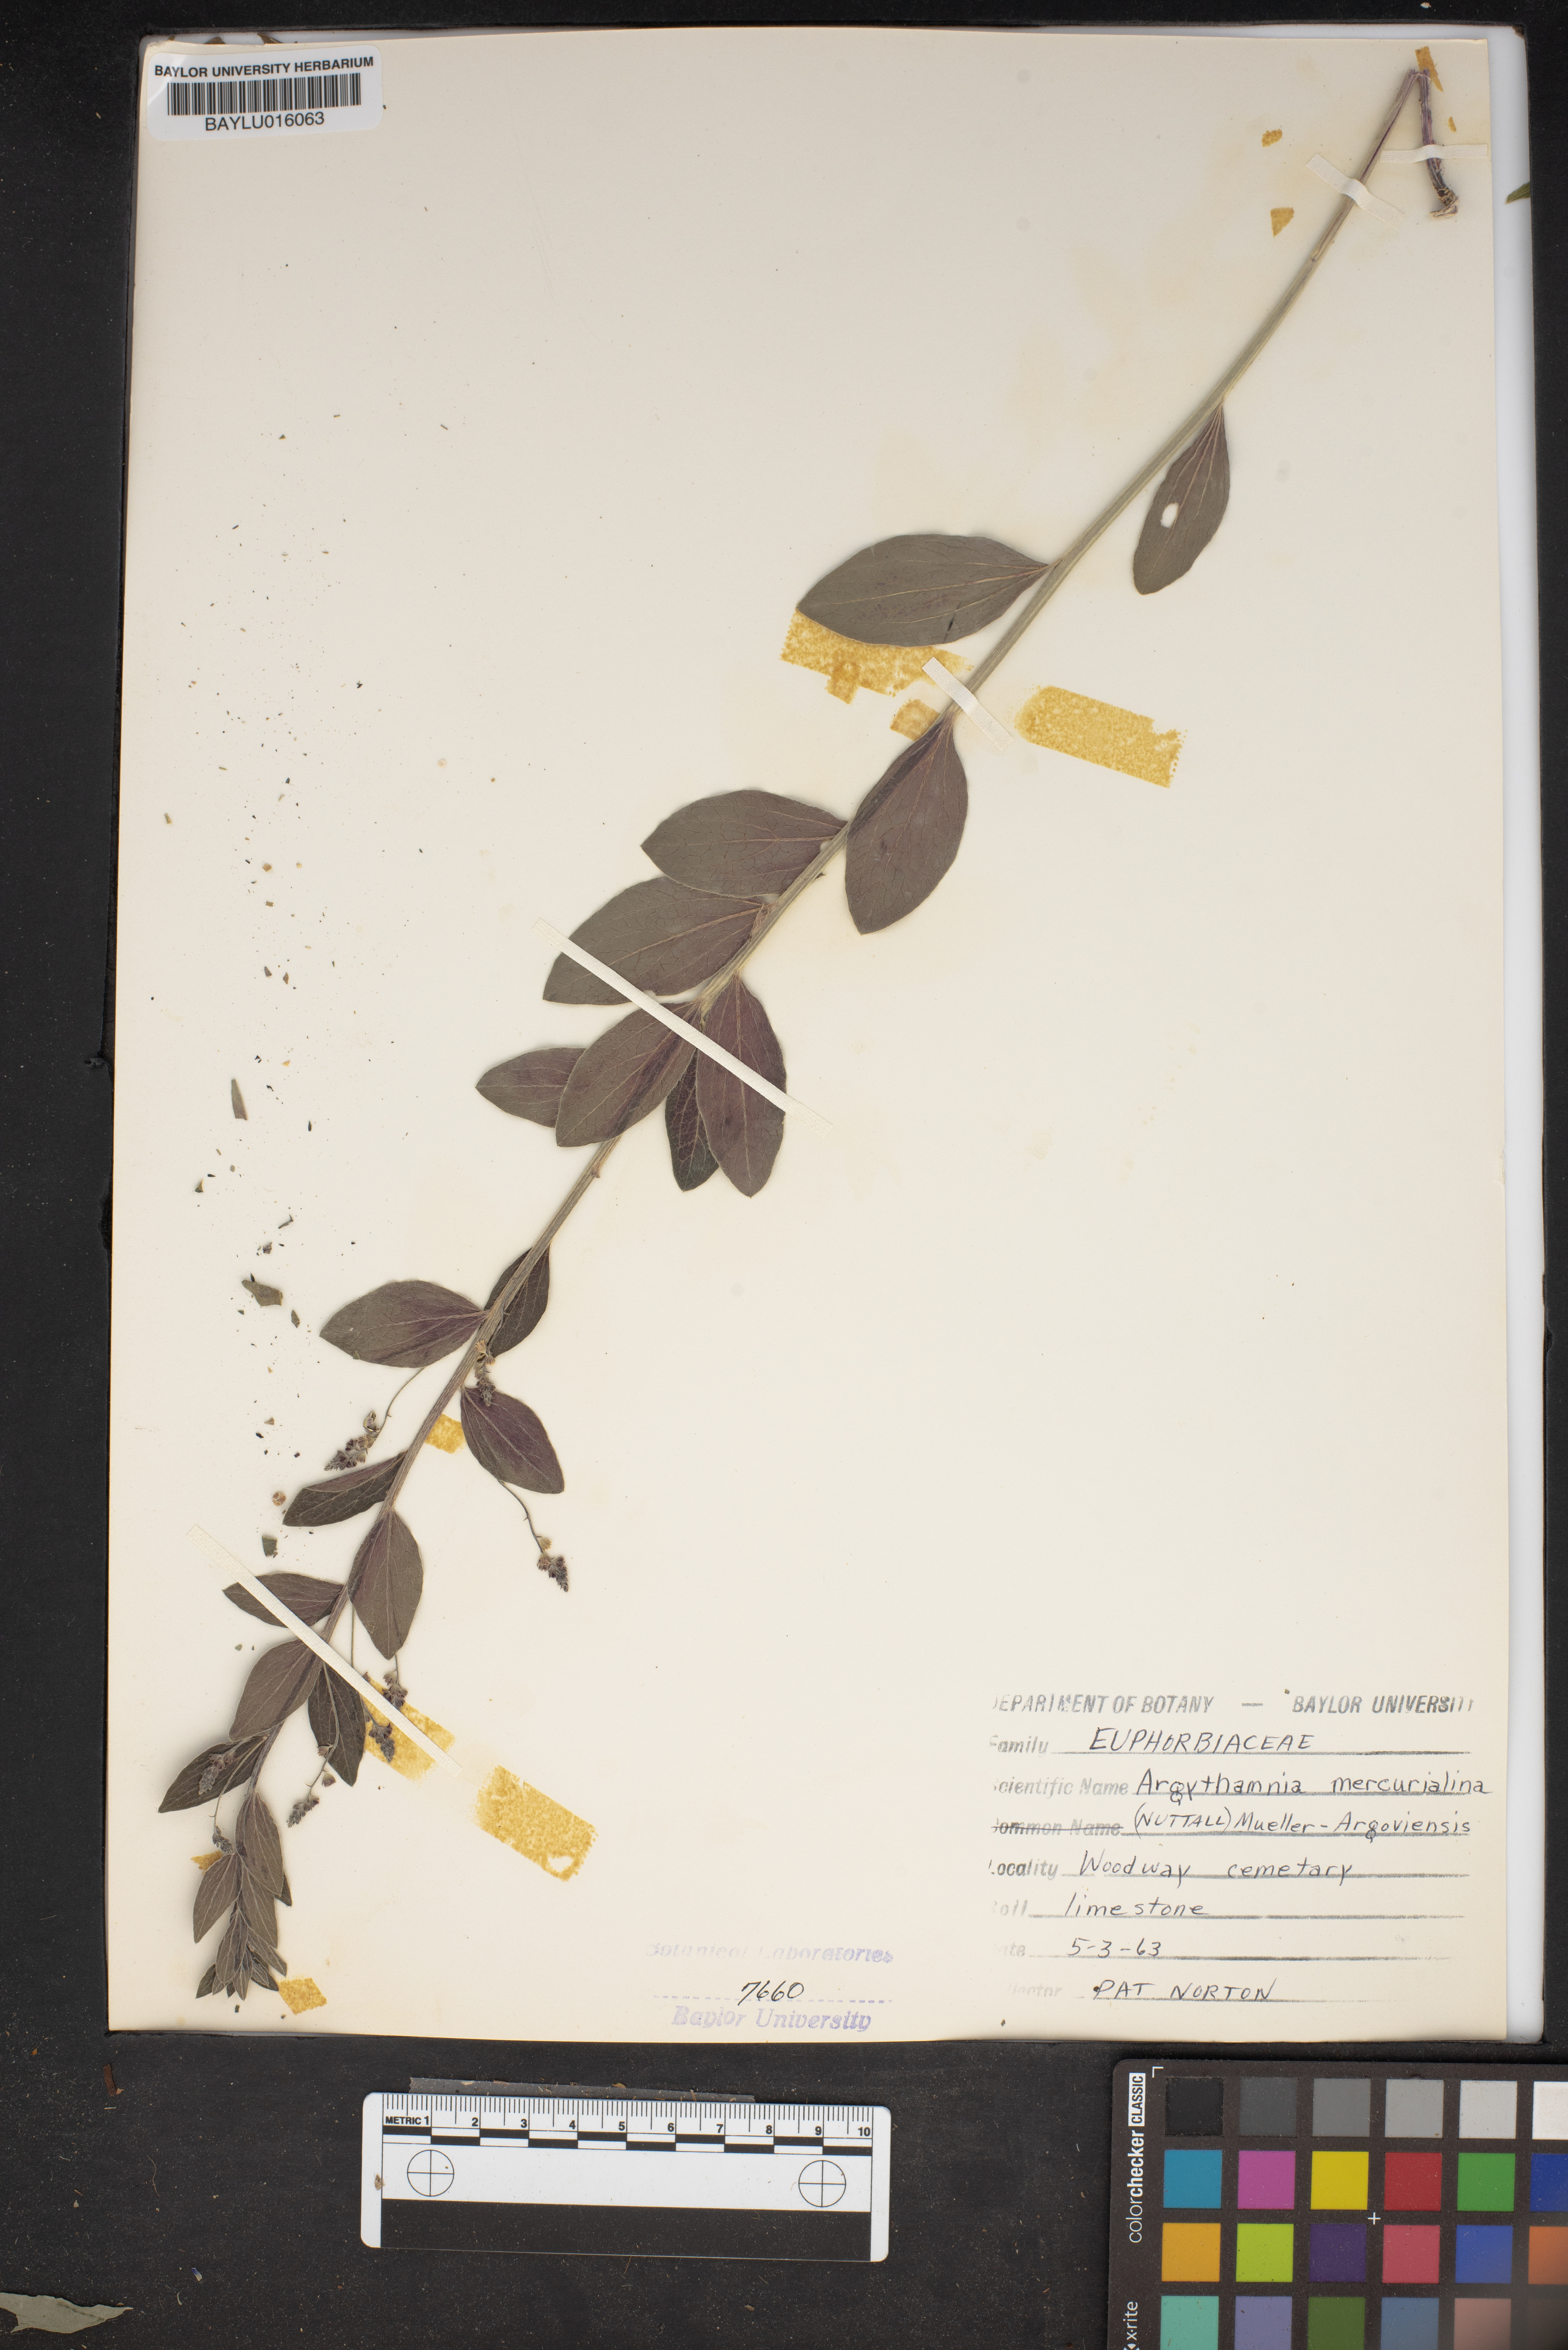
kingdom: Plantae
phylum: Tracheophyta
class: Magnoliopsida
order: Malpighiales
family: Euphorbiaceae
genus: Ditaxis
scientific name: Ditaxis mercurialina
